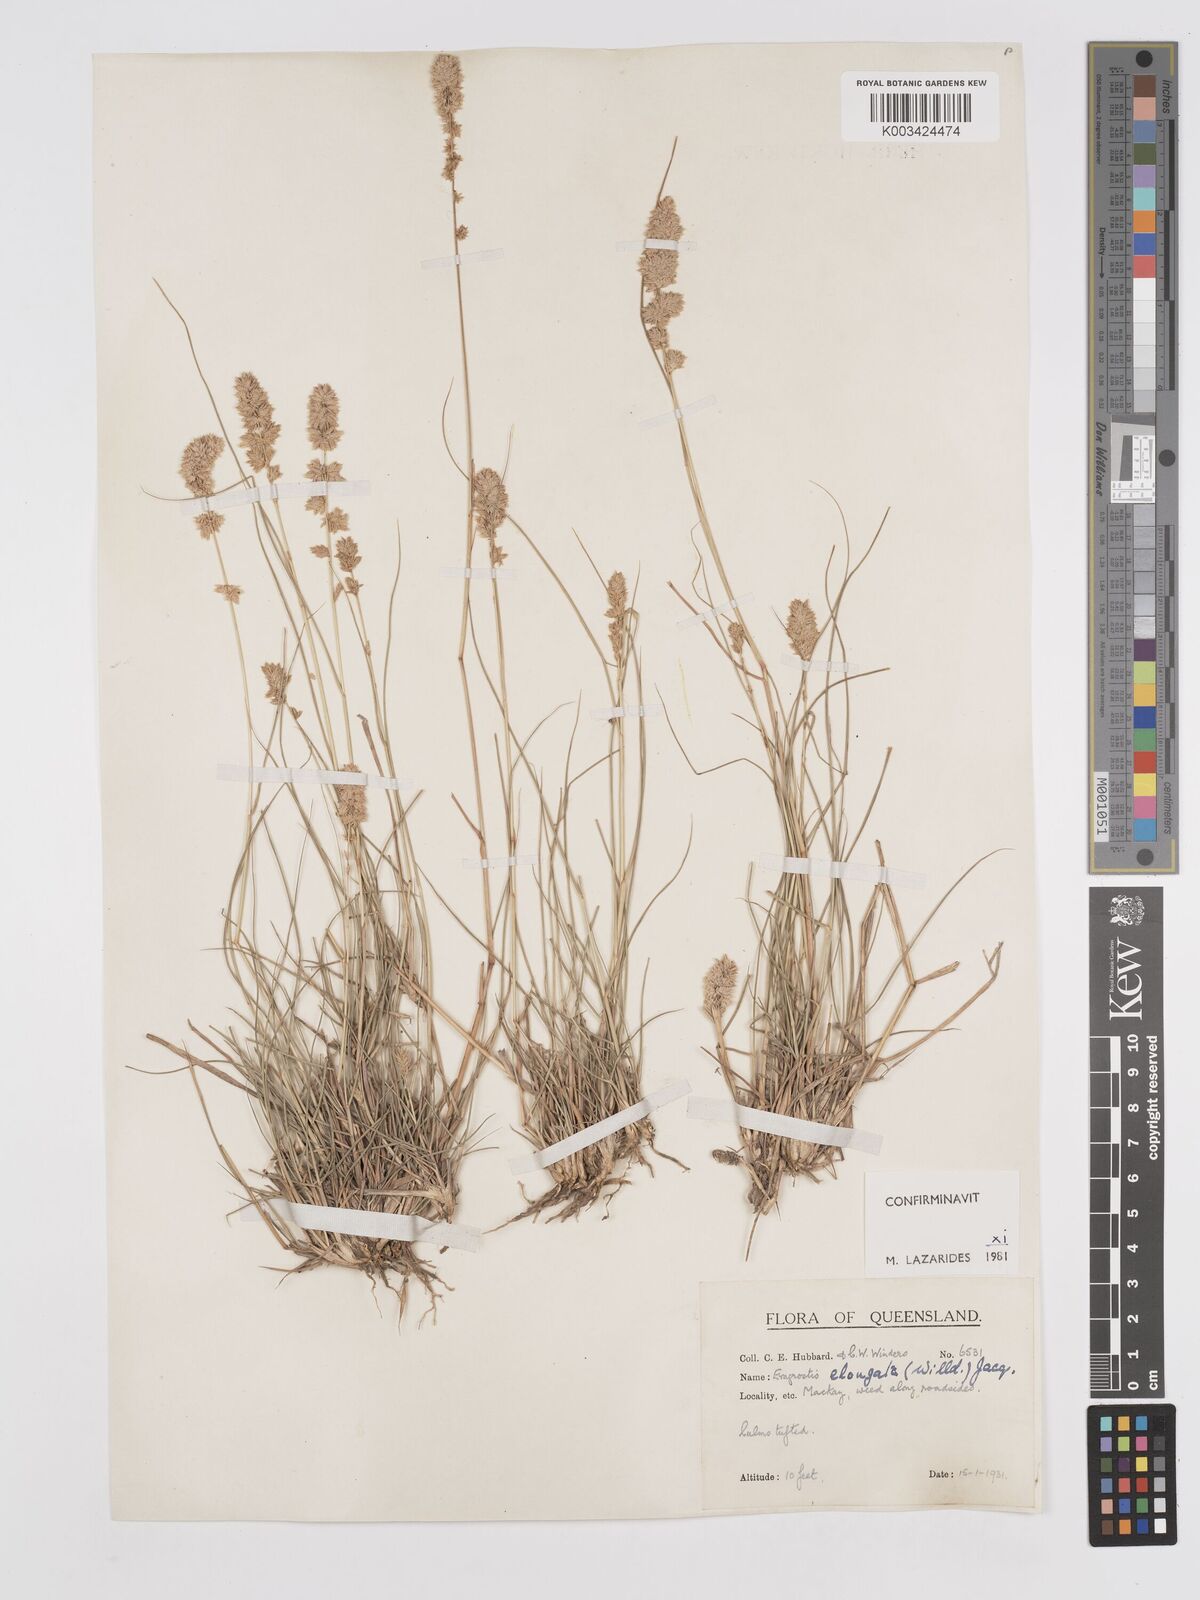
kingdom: Plantae
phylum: Tracheophyta
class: Liliopsida
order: Poales
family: Poaceae
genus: Eragrostis
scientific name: Eragrostis elongata
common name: Long lovegrass
